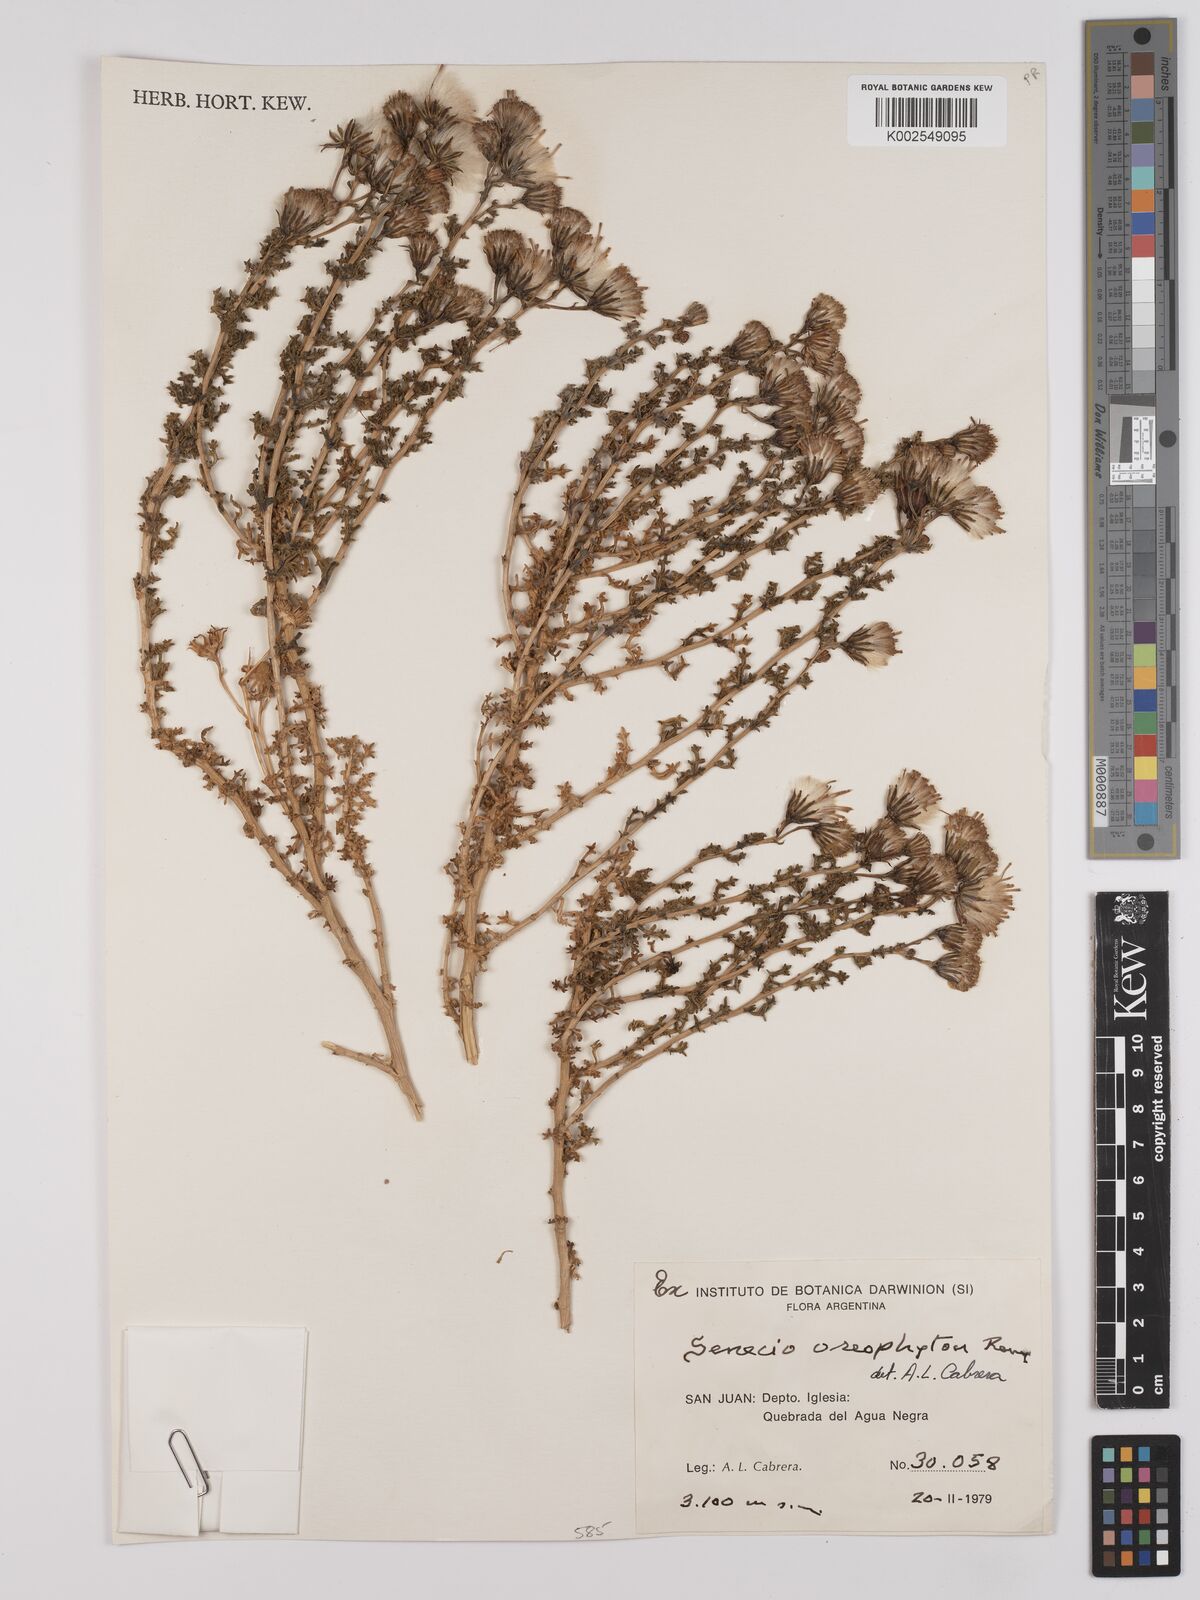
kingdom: Plantae
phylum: Tracheophyta
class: Magnoliopsida
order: Asterales
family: Asteraceae
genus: Senecio
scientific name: Senecio oreophyton
